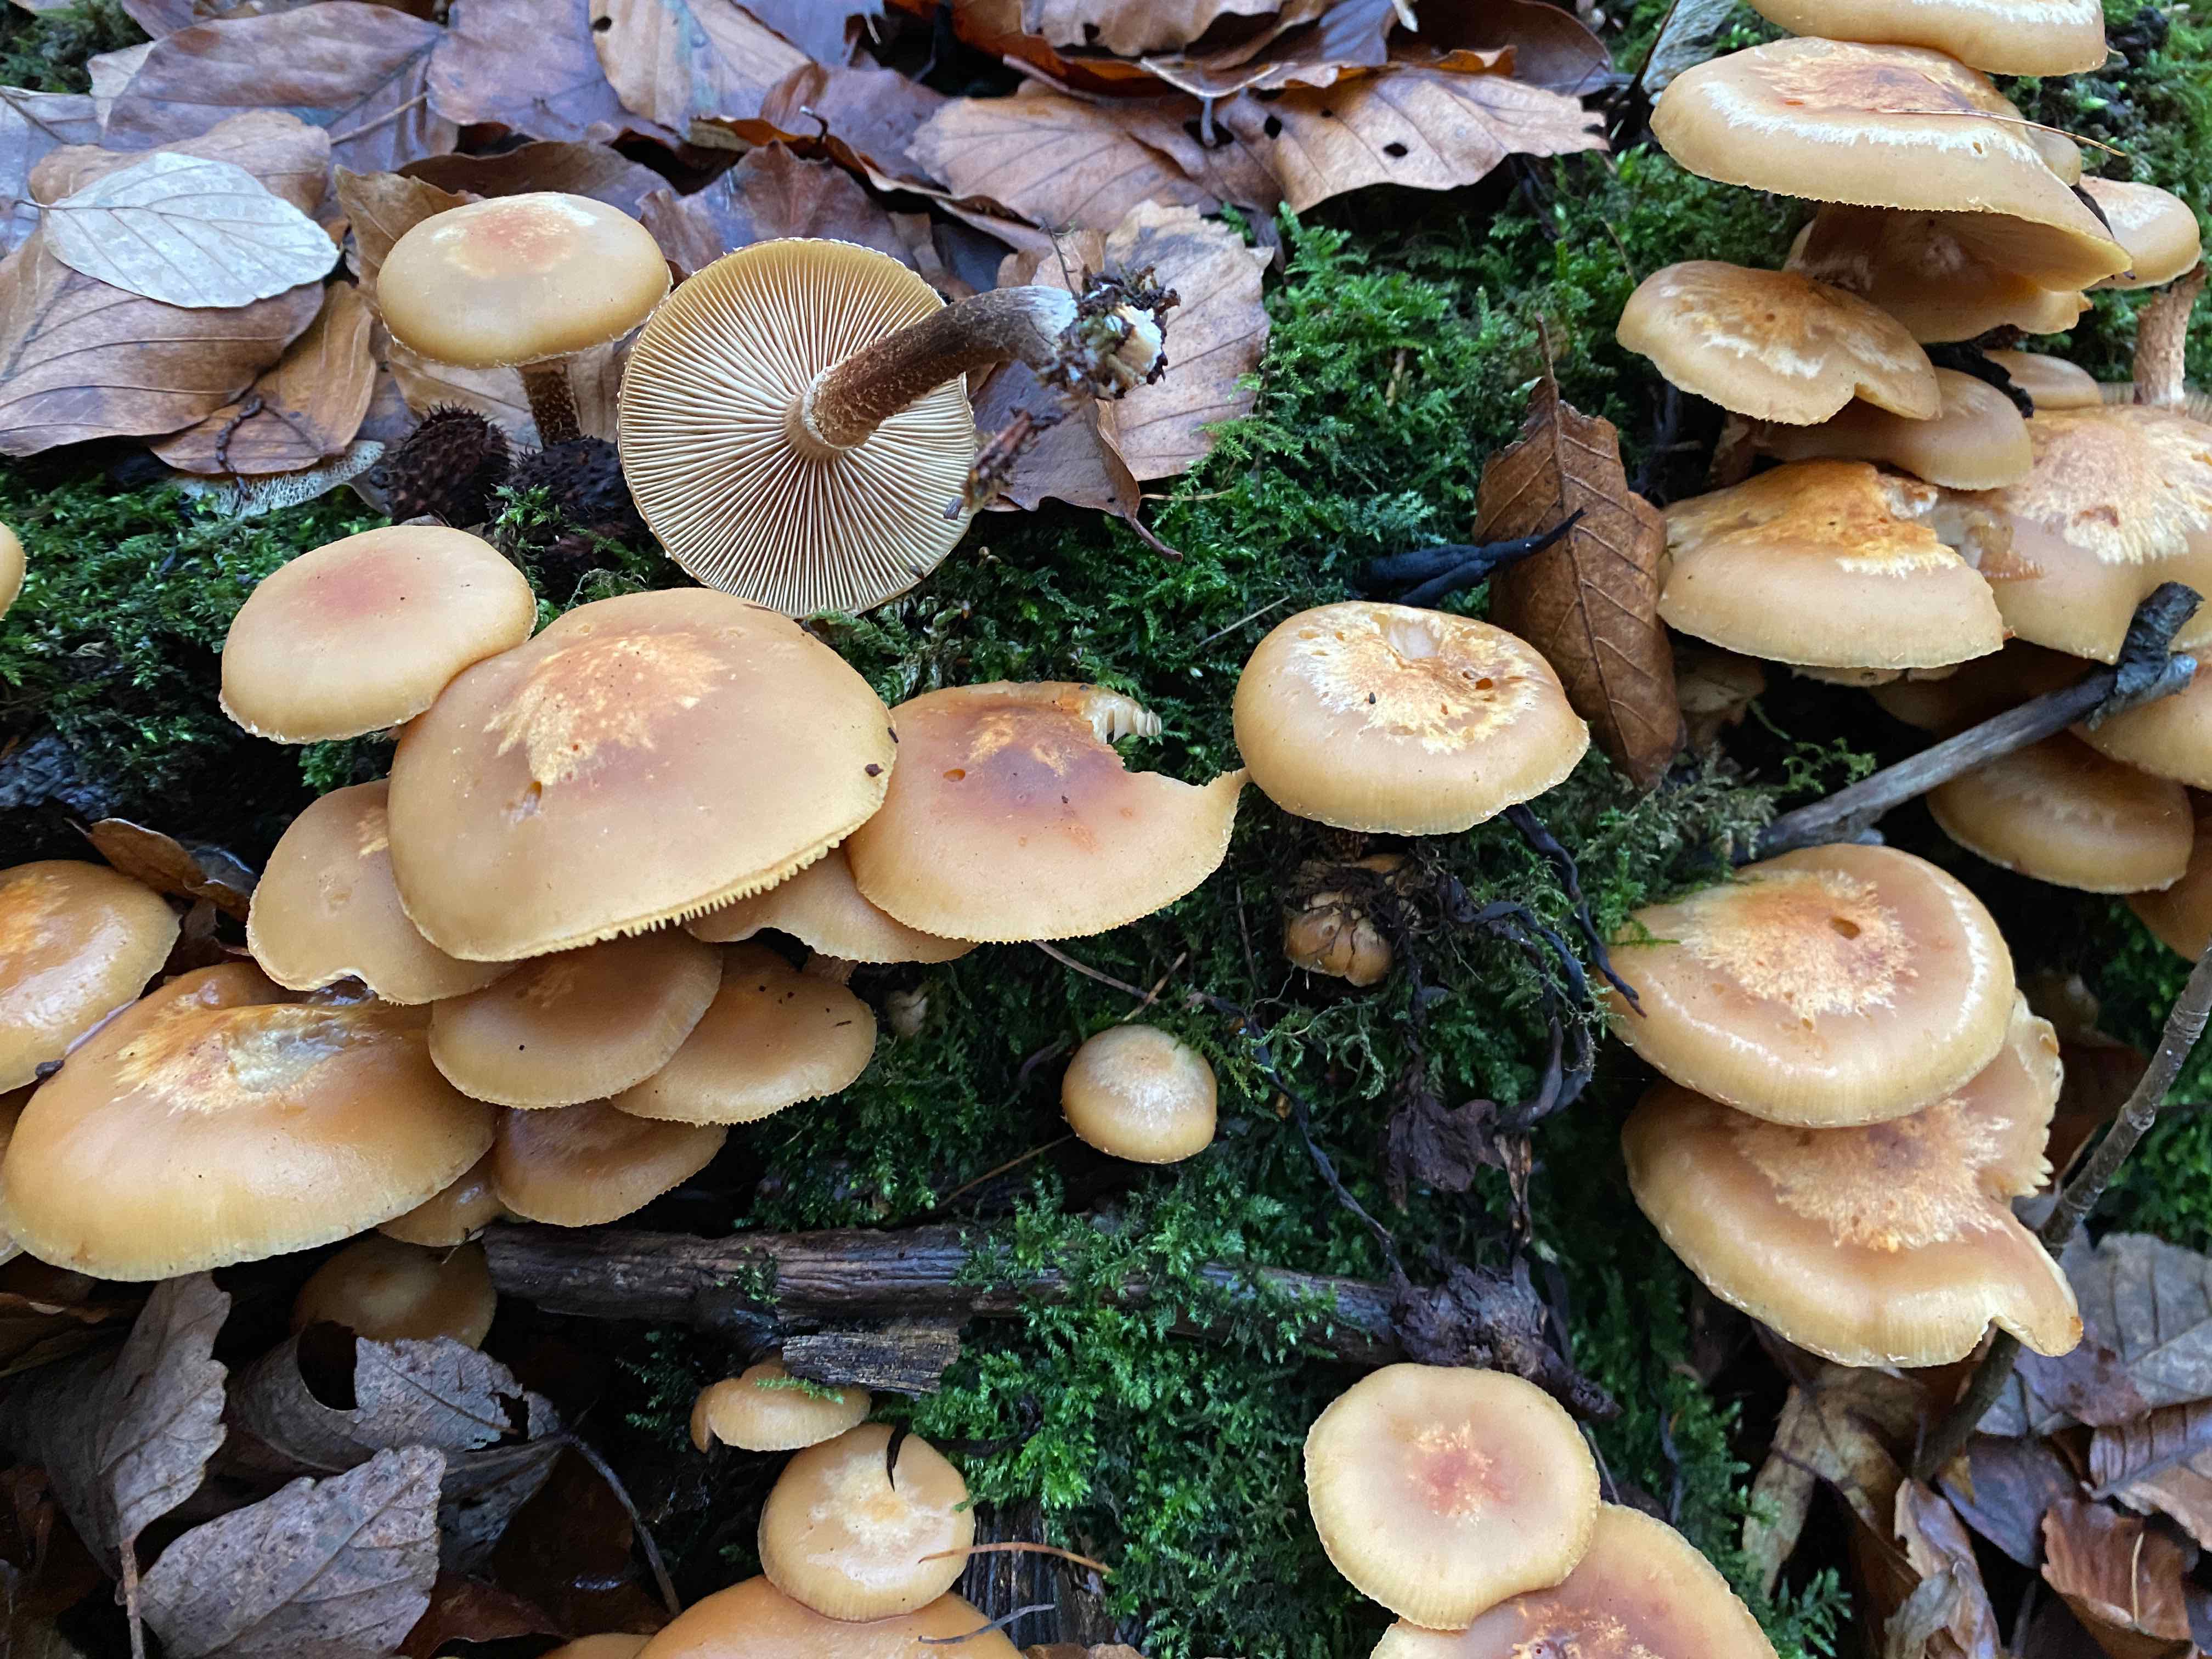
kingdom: Fungi
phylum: Basidiomycota
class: Agaricomycetes
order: Agaricales
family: Strophariaceae
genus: Kuehneromyces
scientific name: Kuehneromyces mutabilis
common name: foranderlig skælhat
